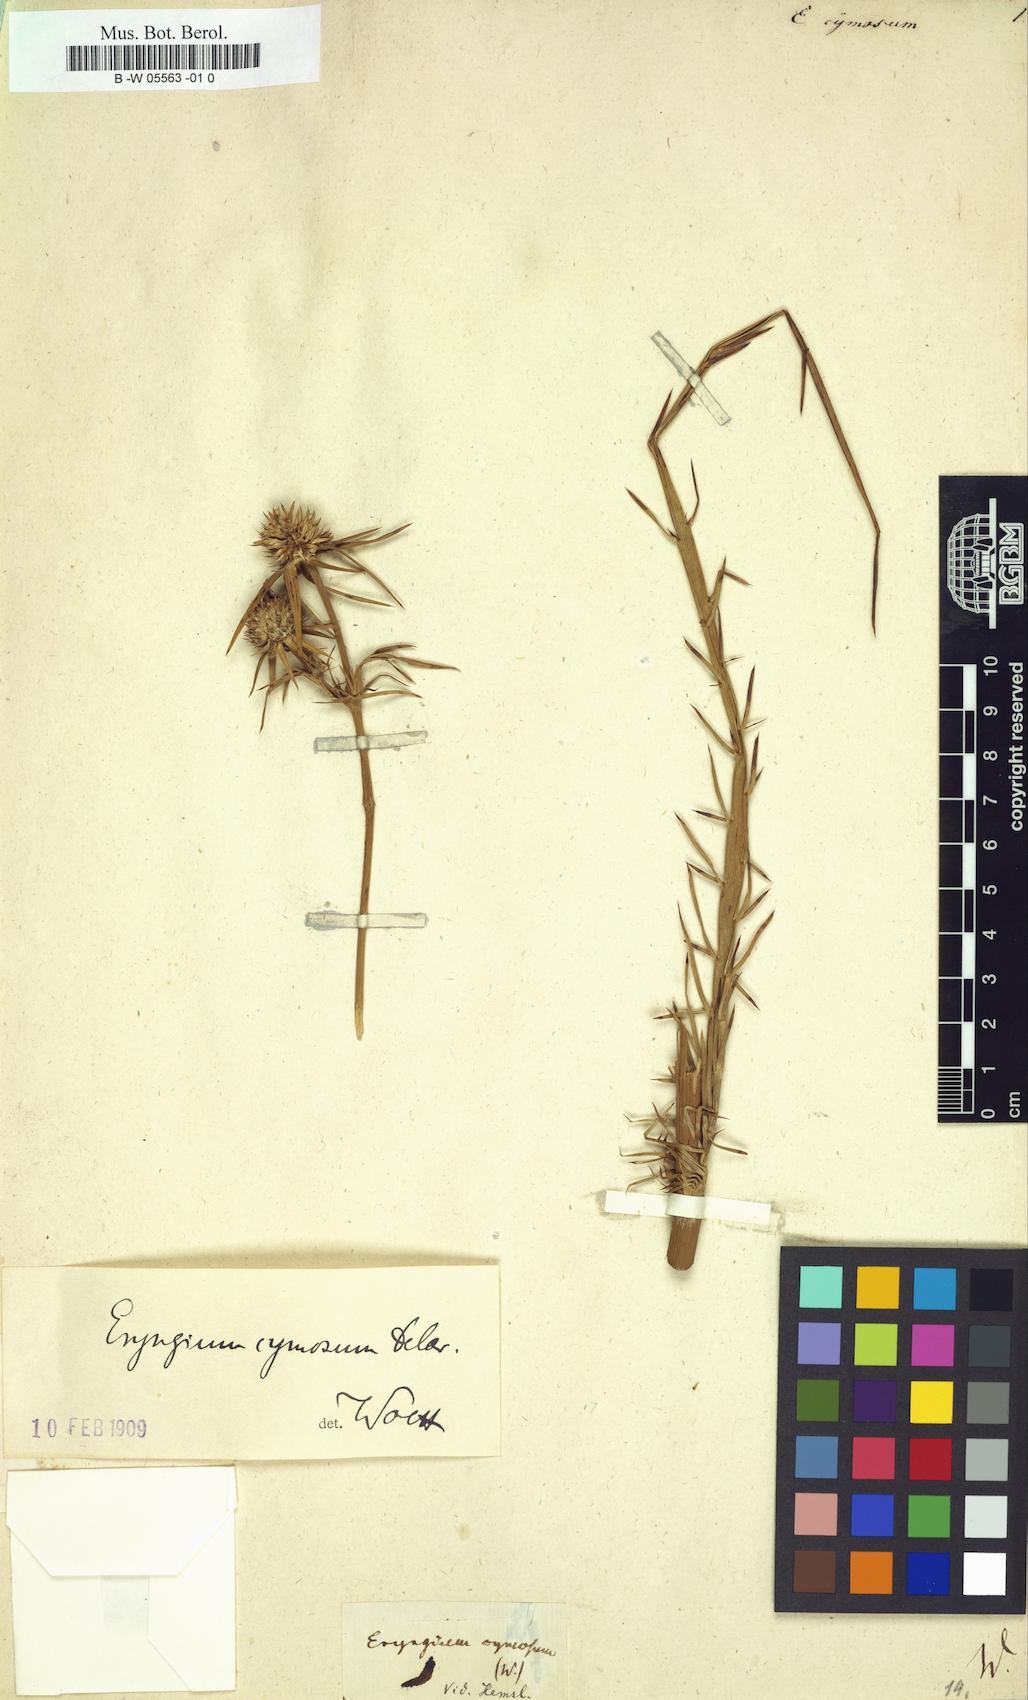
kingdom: Plantae
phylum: Tracheophyta
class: Magnoliopsida
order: Apiales
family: Apiaceae
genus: Eryngium
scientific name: Eryngium cymosum
